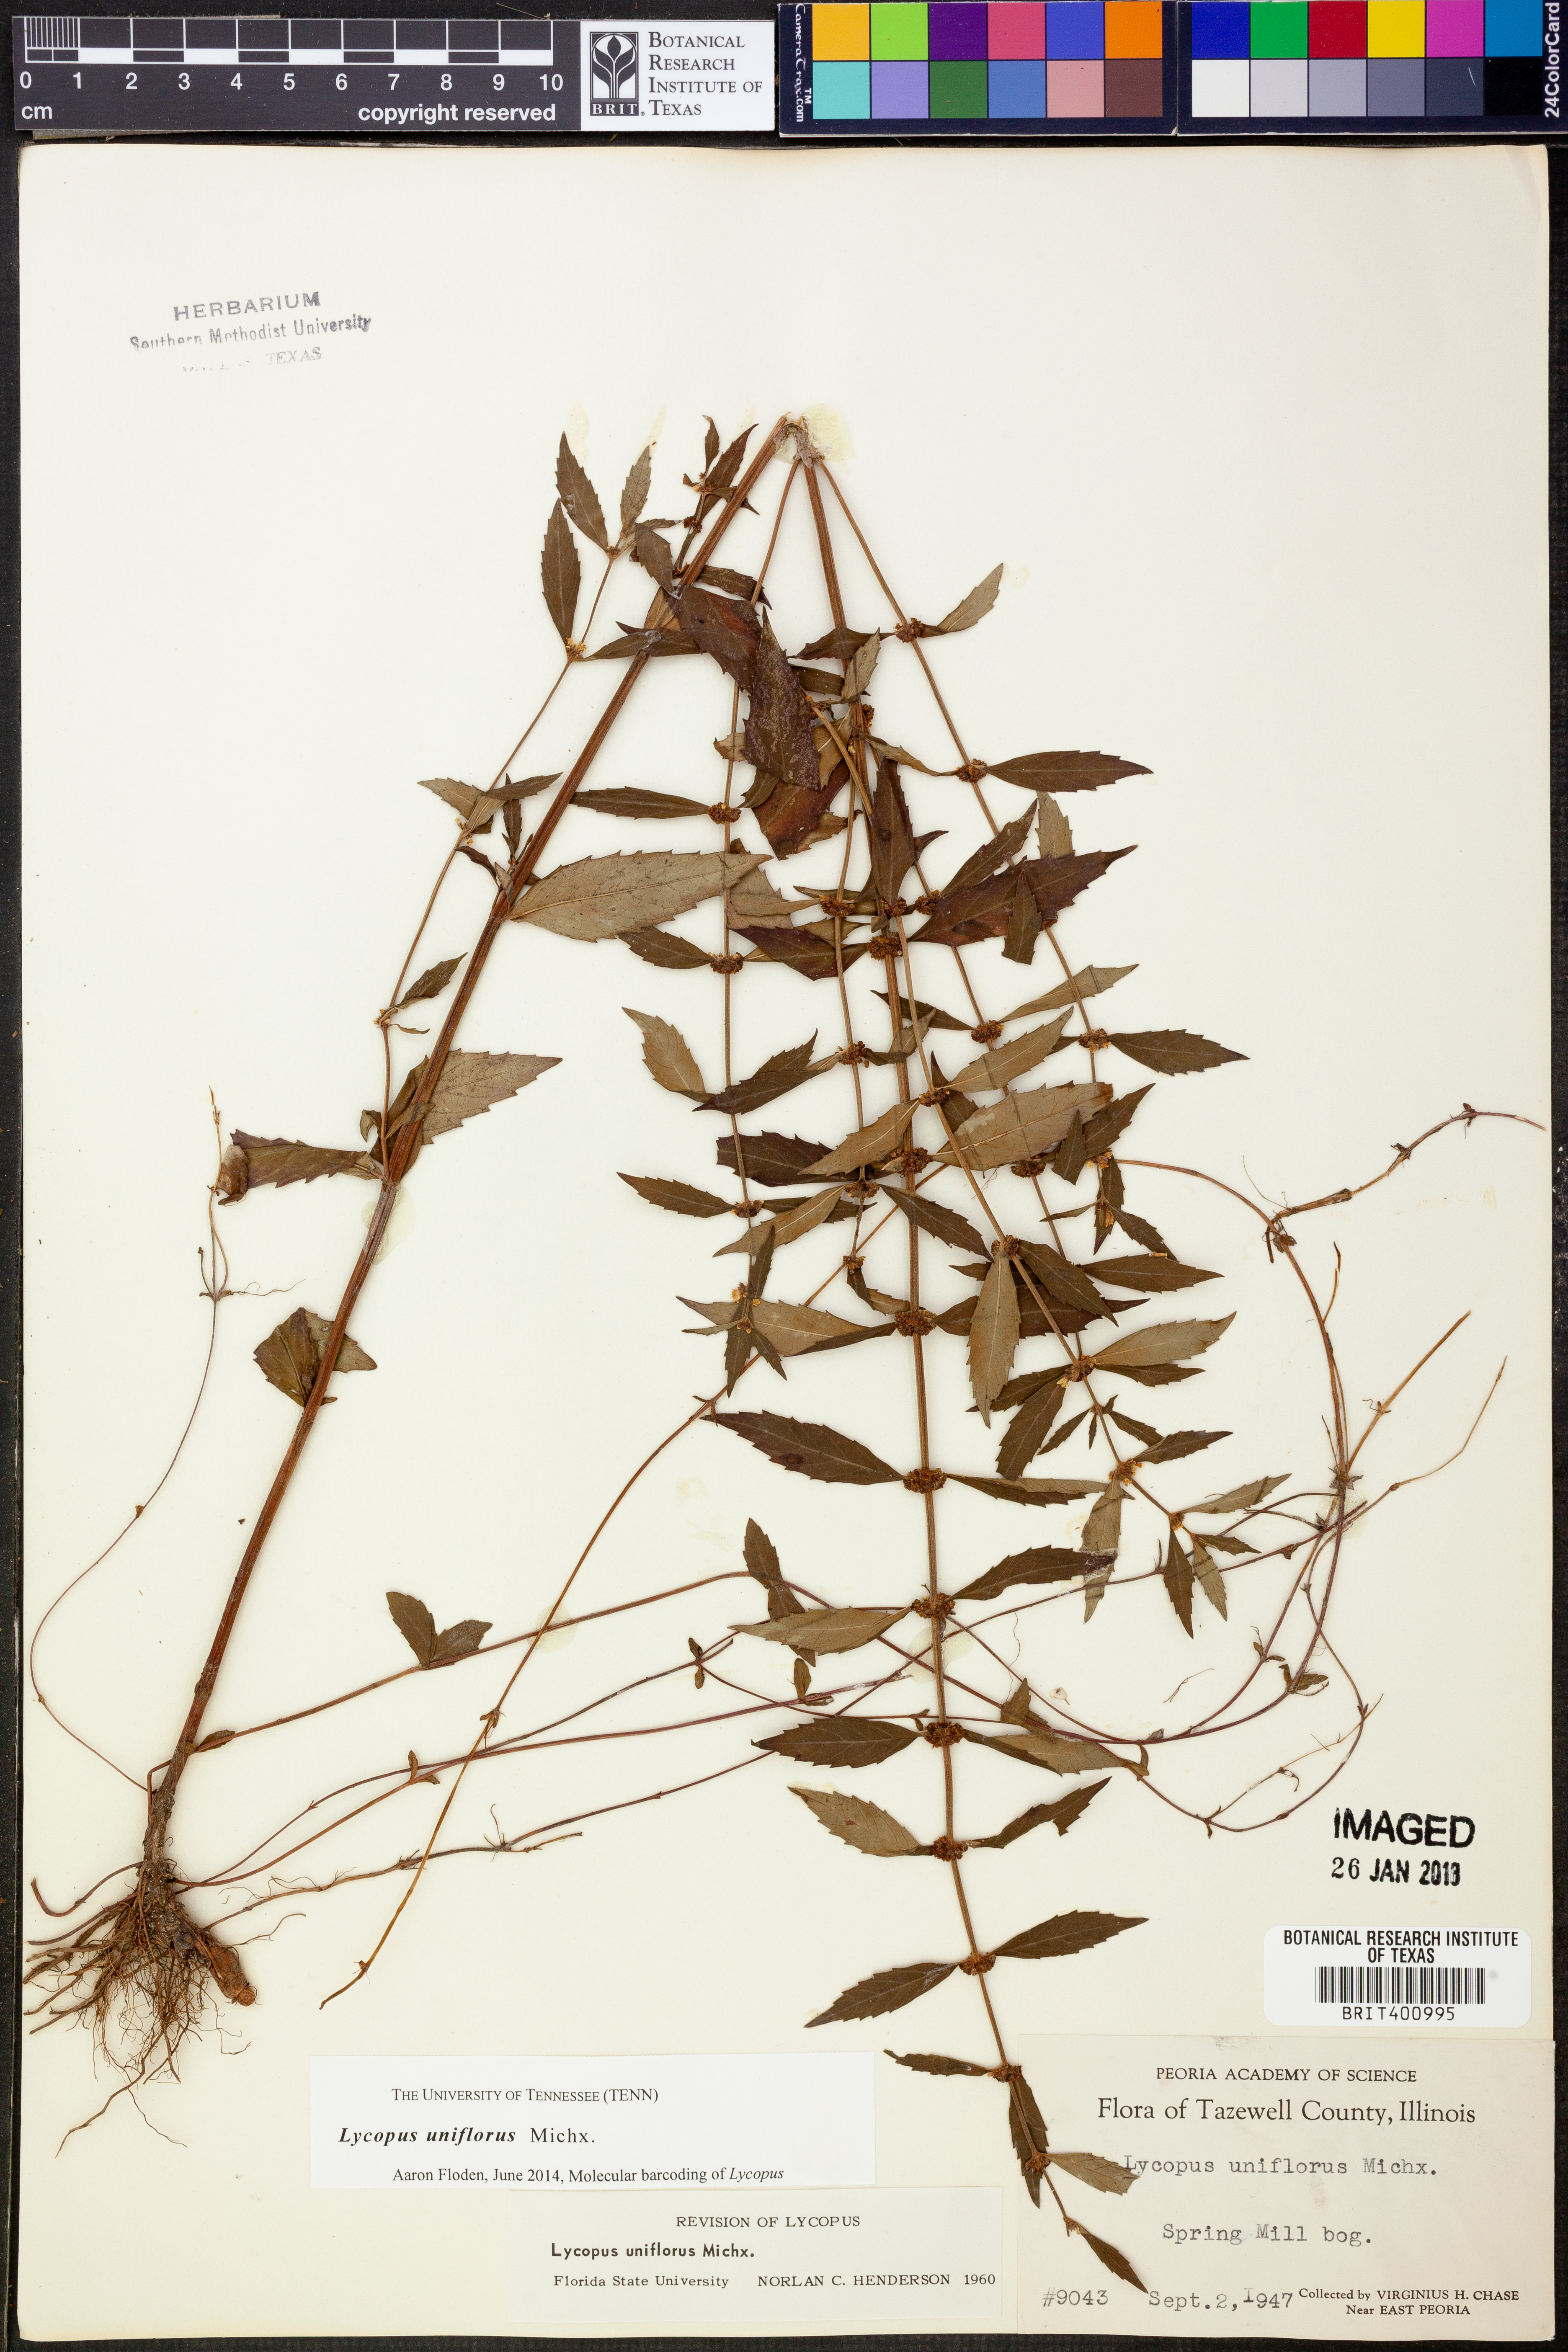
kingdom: Plantae
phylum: Tracheophyta
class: Magnoliopsida
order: Lamiales
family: Lamiaceae
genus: Lycopus
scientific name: Lycopus uniflorus
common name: Northern bugleweed
